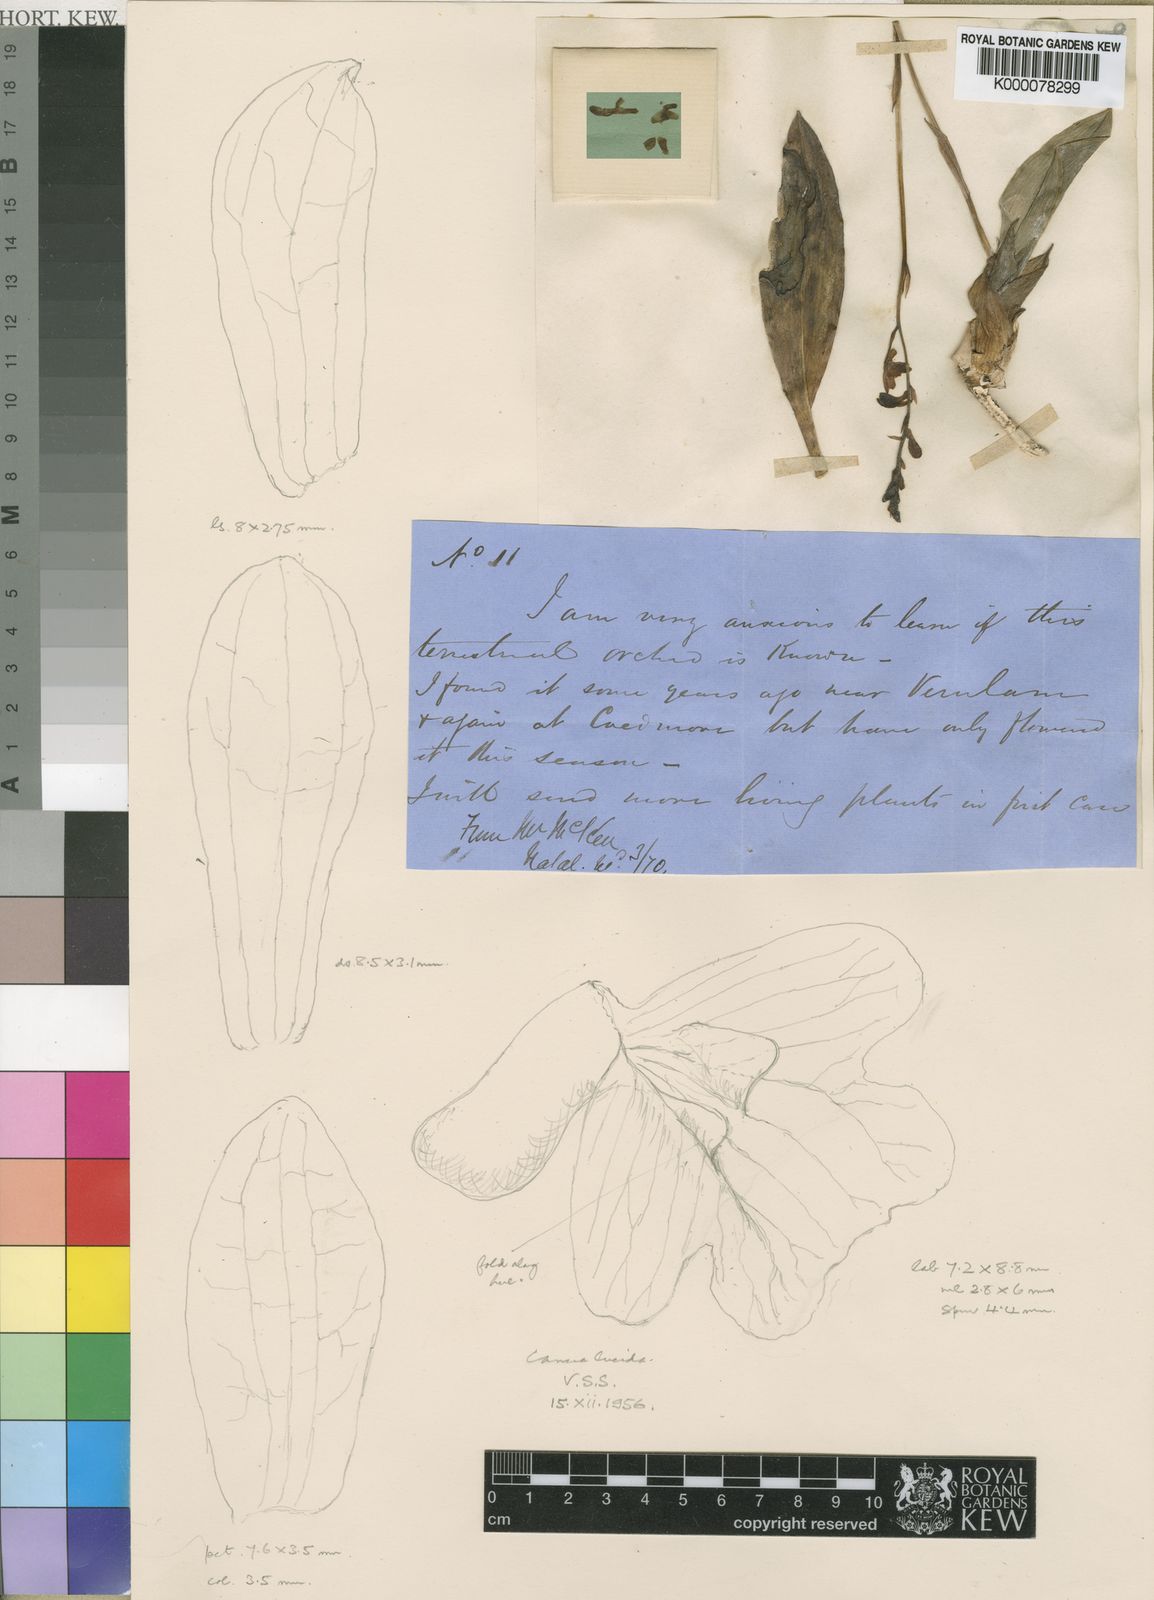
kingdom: Plantae
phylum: Tracheophyta
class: Liliopsida
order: Asparagales
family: Orchidaceae
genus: Eulophia
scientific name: Eulophia maculata
